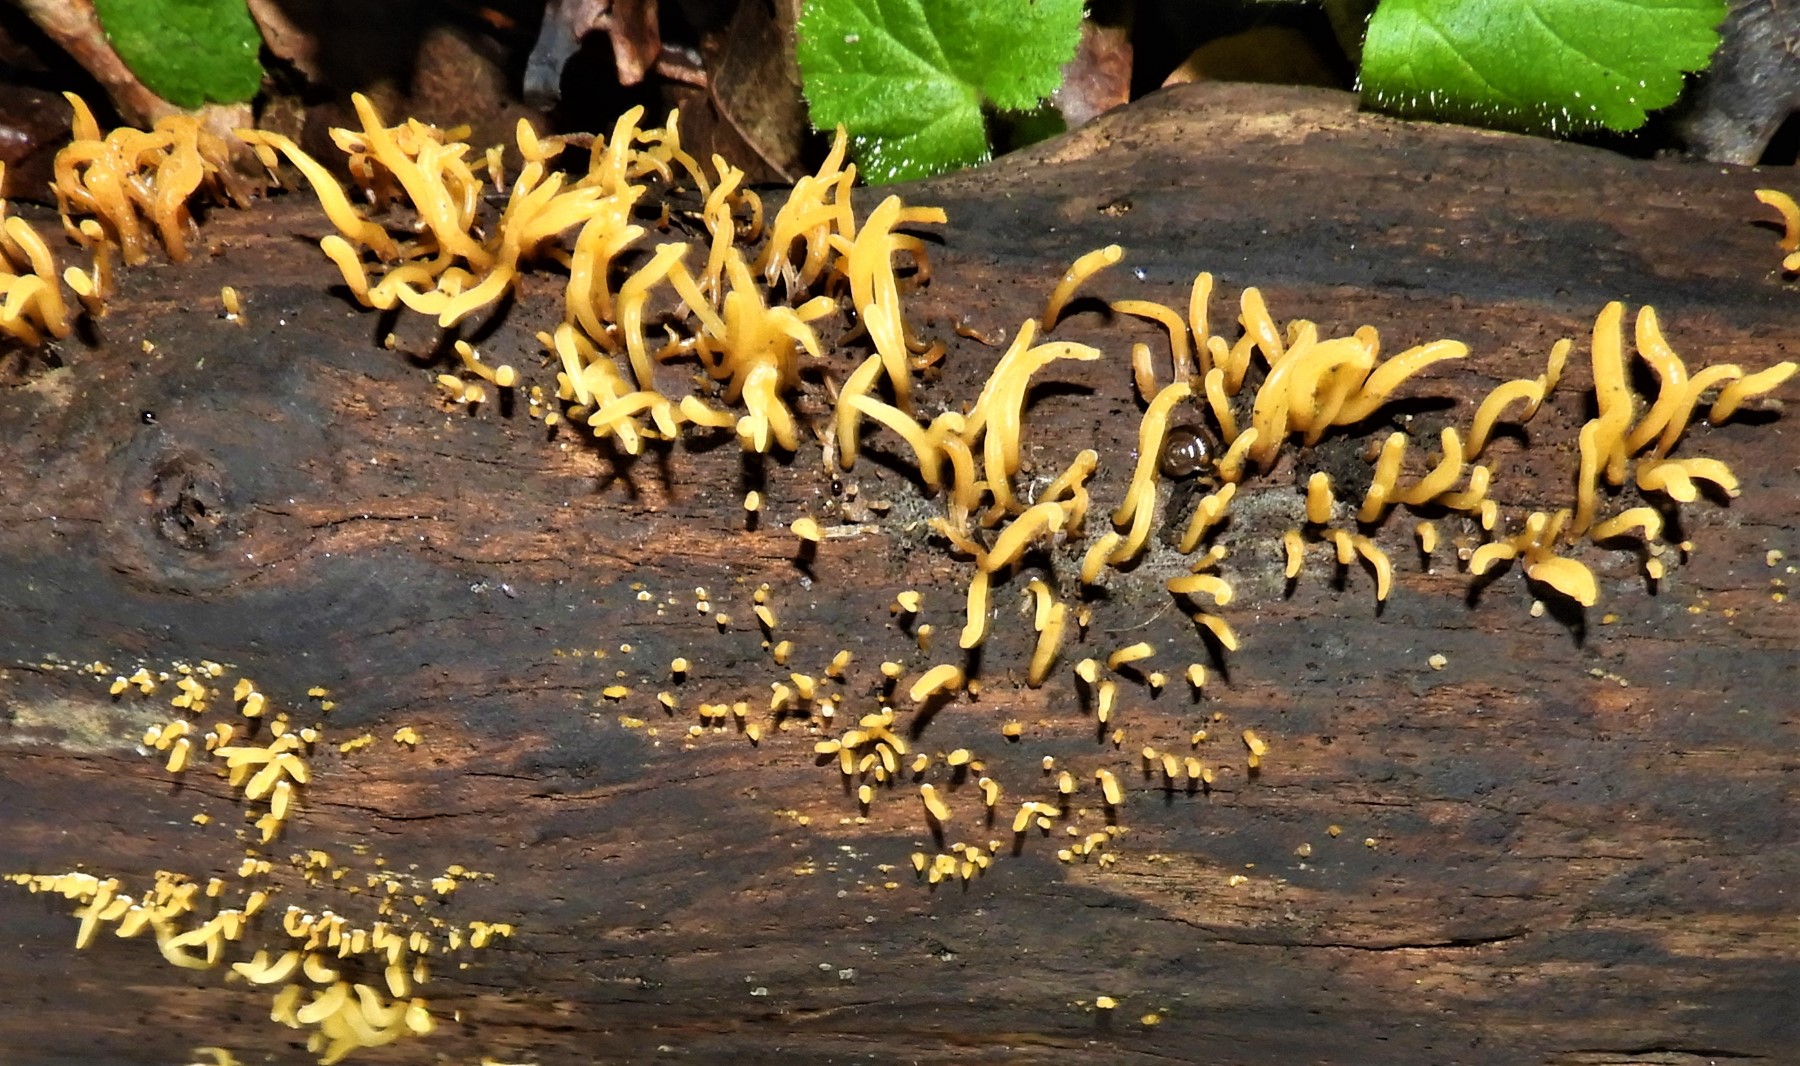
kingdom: Fungi
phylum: Basidiomycota
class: Dacrymycetes
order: Dacrymycetales
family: Dacrymycetaceae
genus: Calocera
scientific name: Calocera cornea
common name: liden guldgaffel
